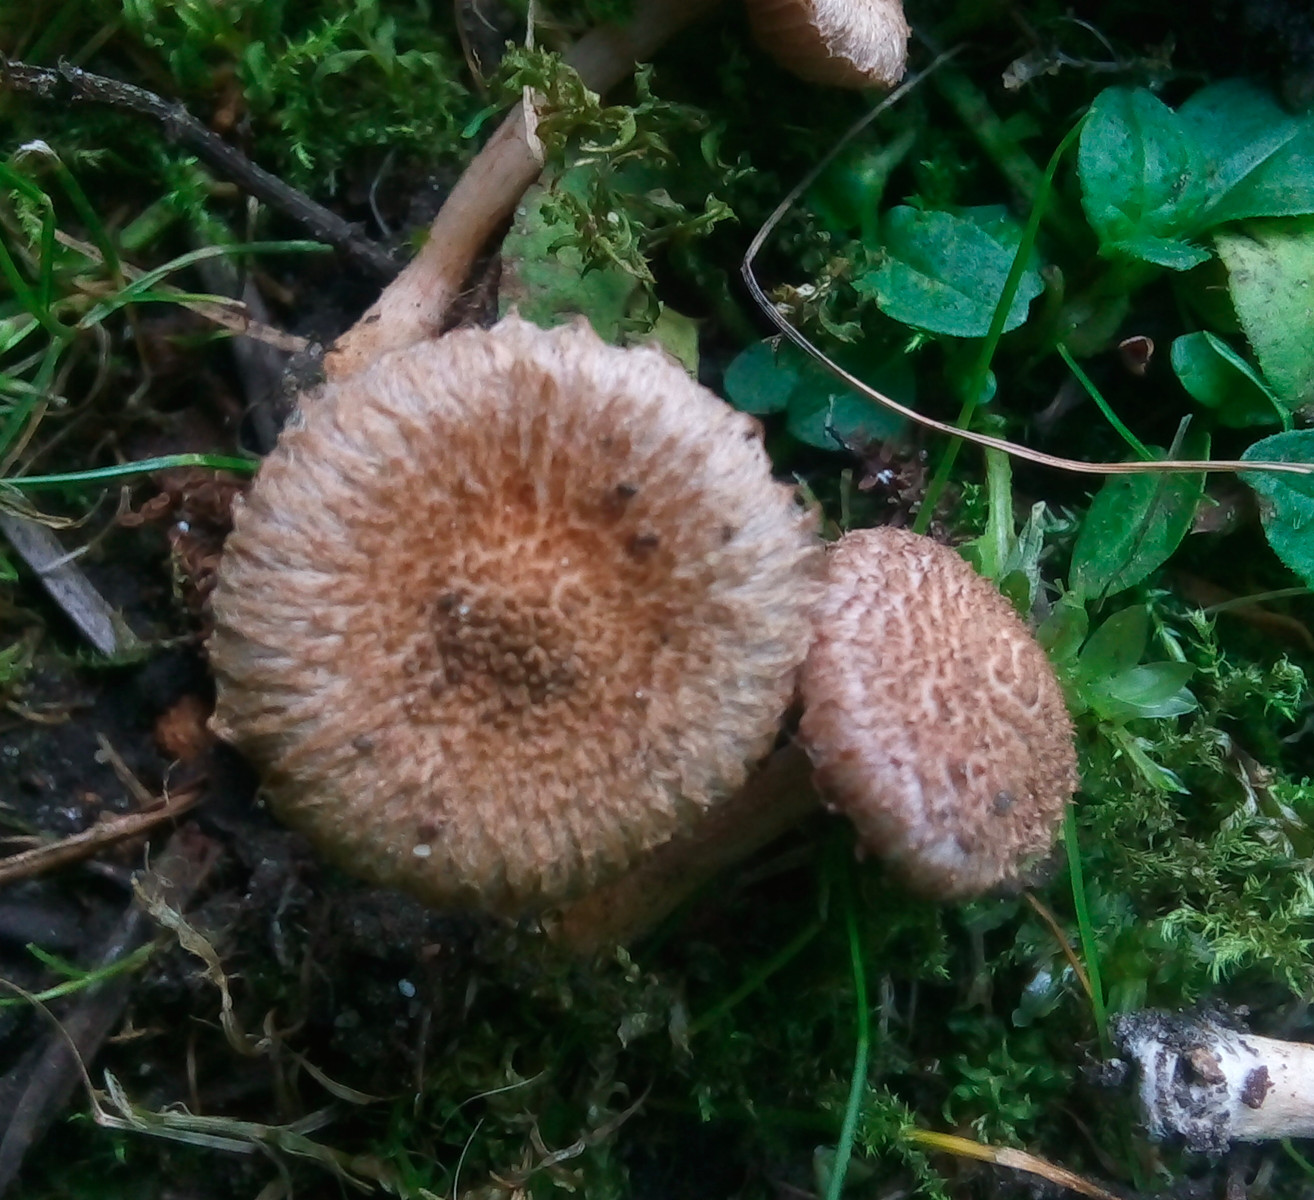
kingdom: Fungi
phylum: Basidiomycota
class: Agaricomycetes
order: Agaricales
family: Inocybaceae
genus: Inocybe
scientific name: Inocybe cincinnata
